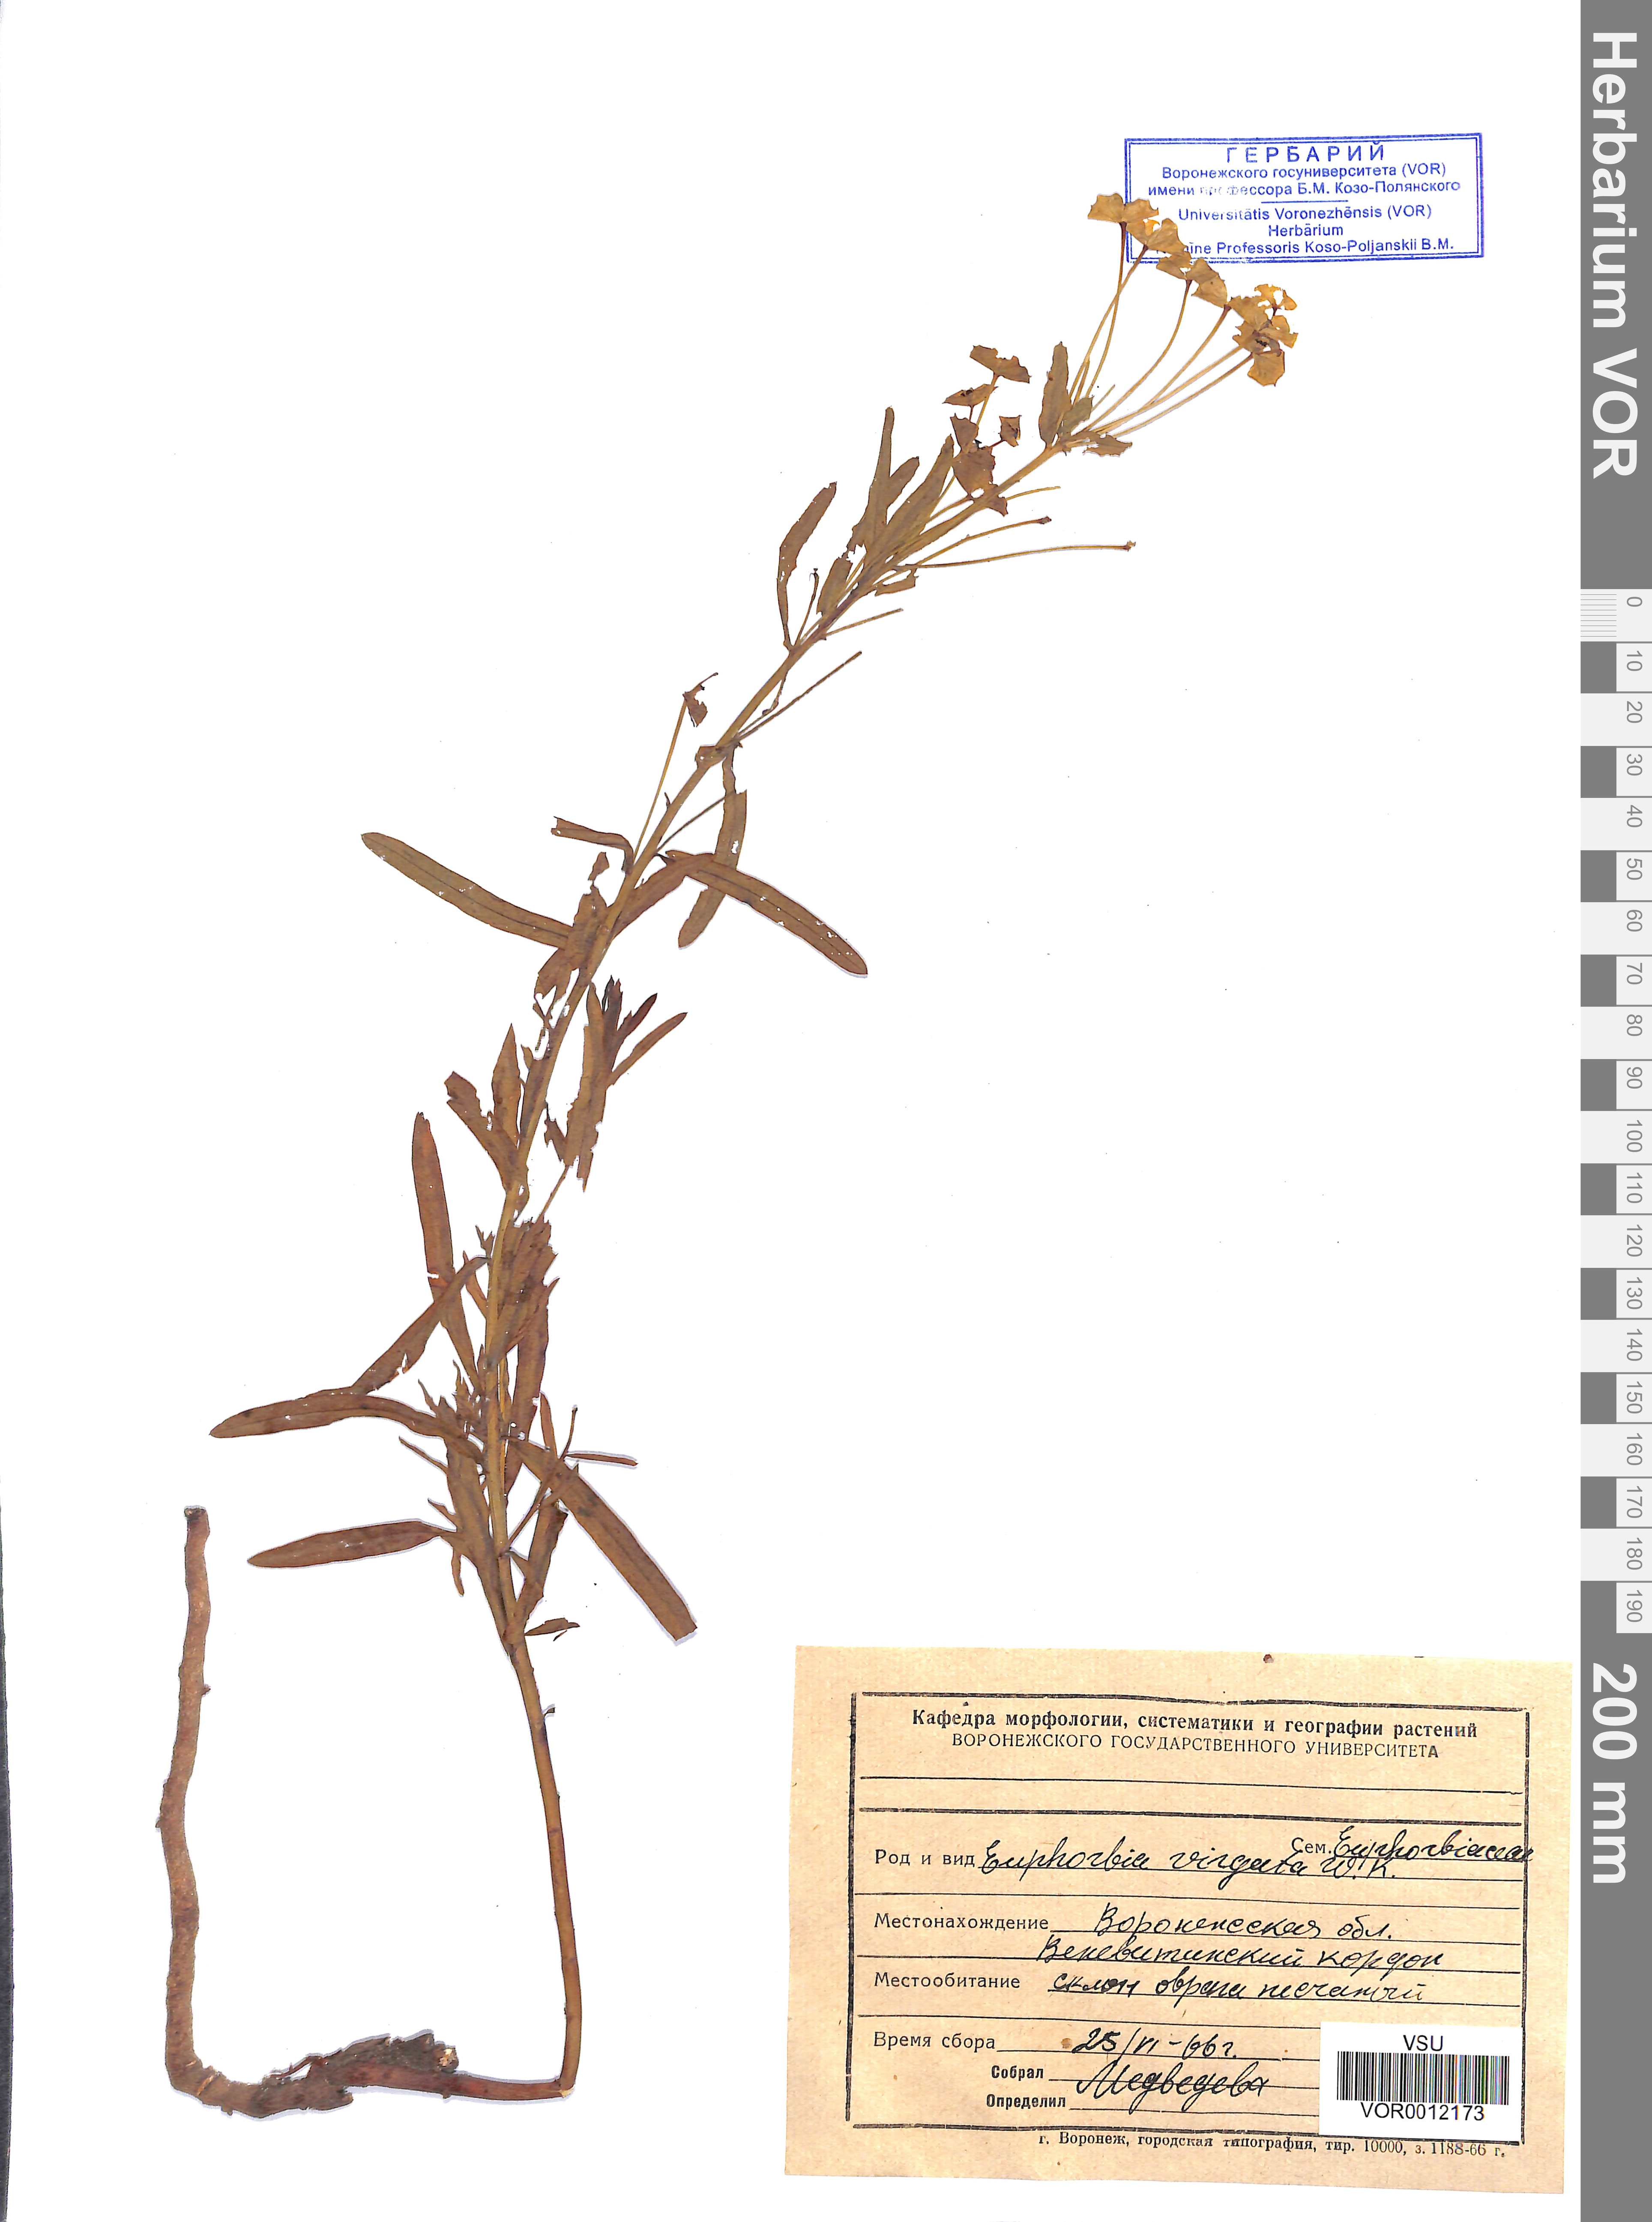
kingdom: Plantae
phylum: Tracheophyta
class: Magnoliopsida
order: Malpighiales
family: Euphorbiaceae
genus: Euphorbia
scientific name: Euphorbia virgata
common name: Leafy spurge
